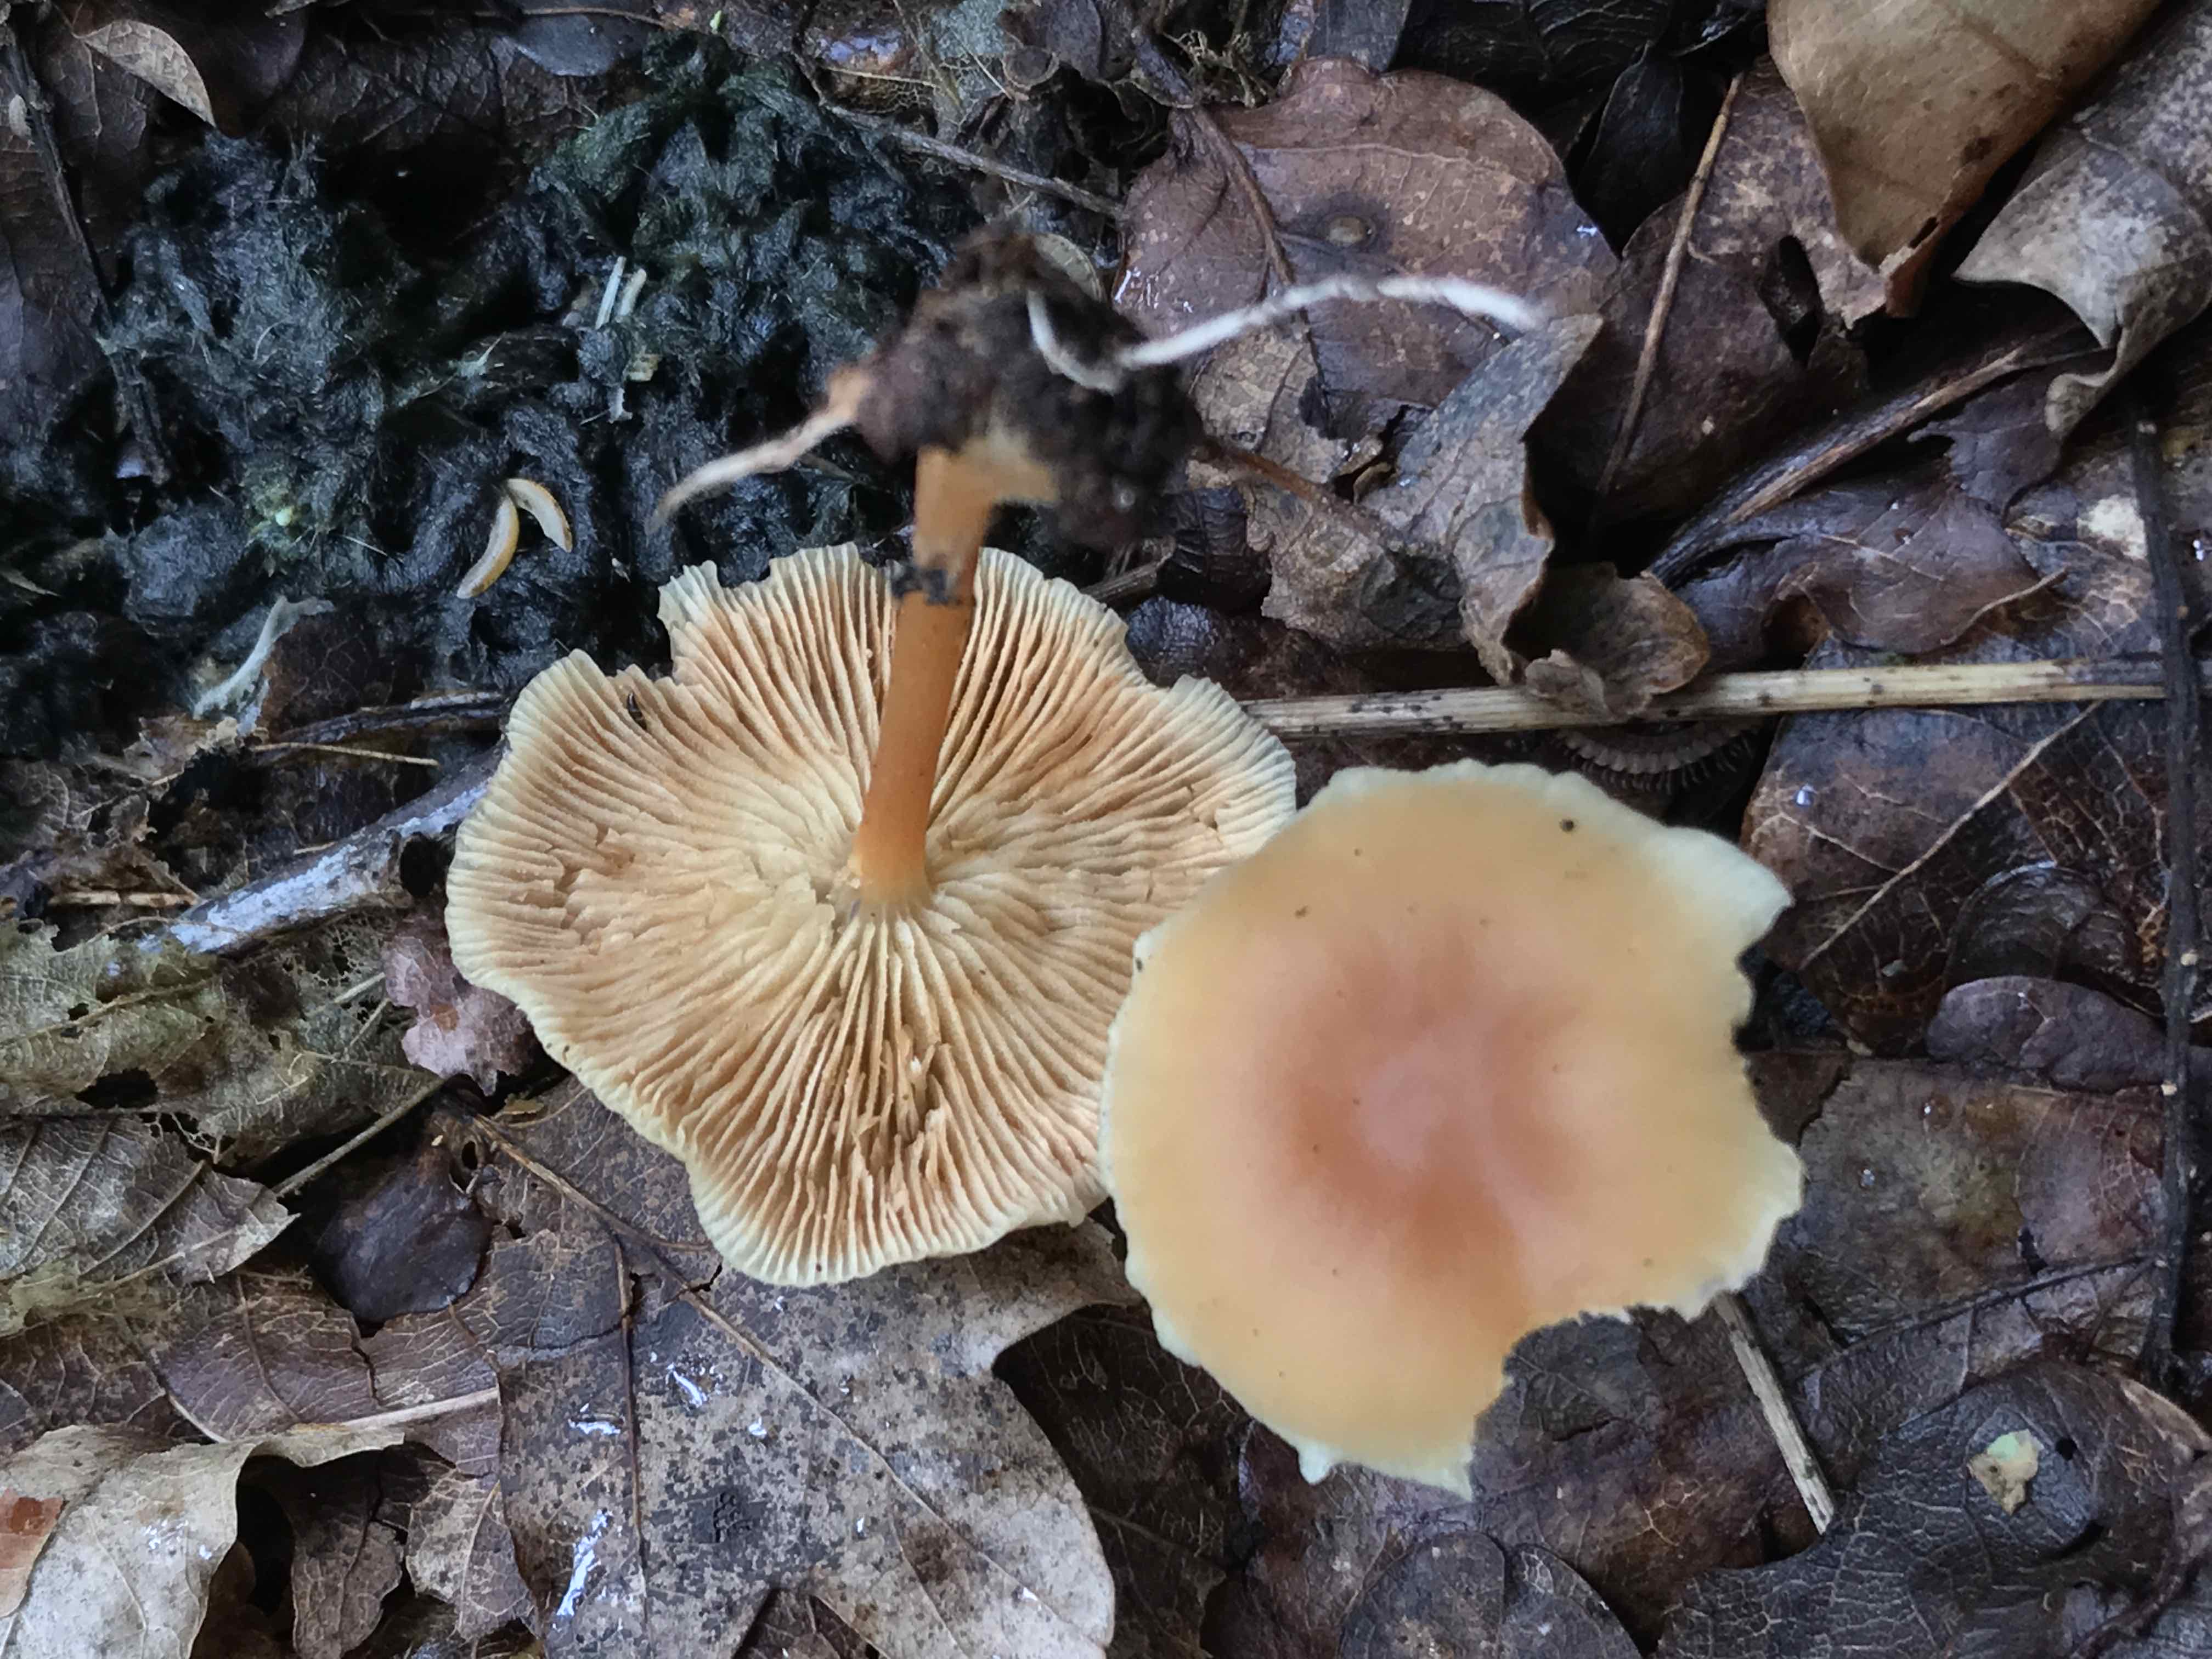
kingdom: Fungi
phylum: Basidiomycota
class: Agaricomycetes
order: Agaricales
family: Omphalotaceae
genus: Gymnopus
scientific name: Gymnopus dryophilus
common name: løv-fladhat
